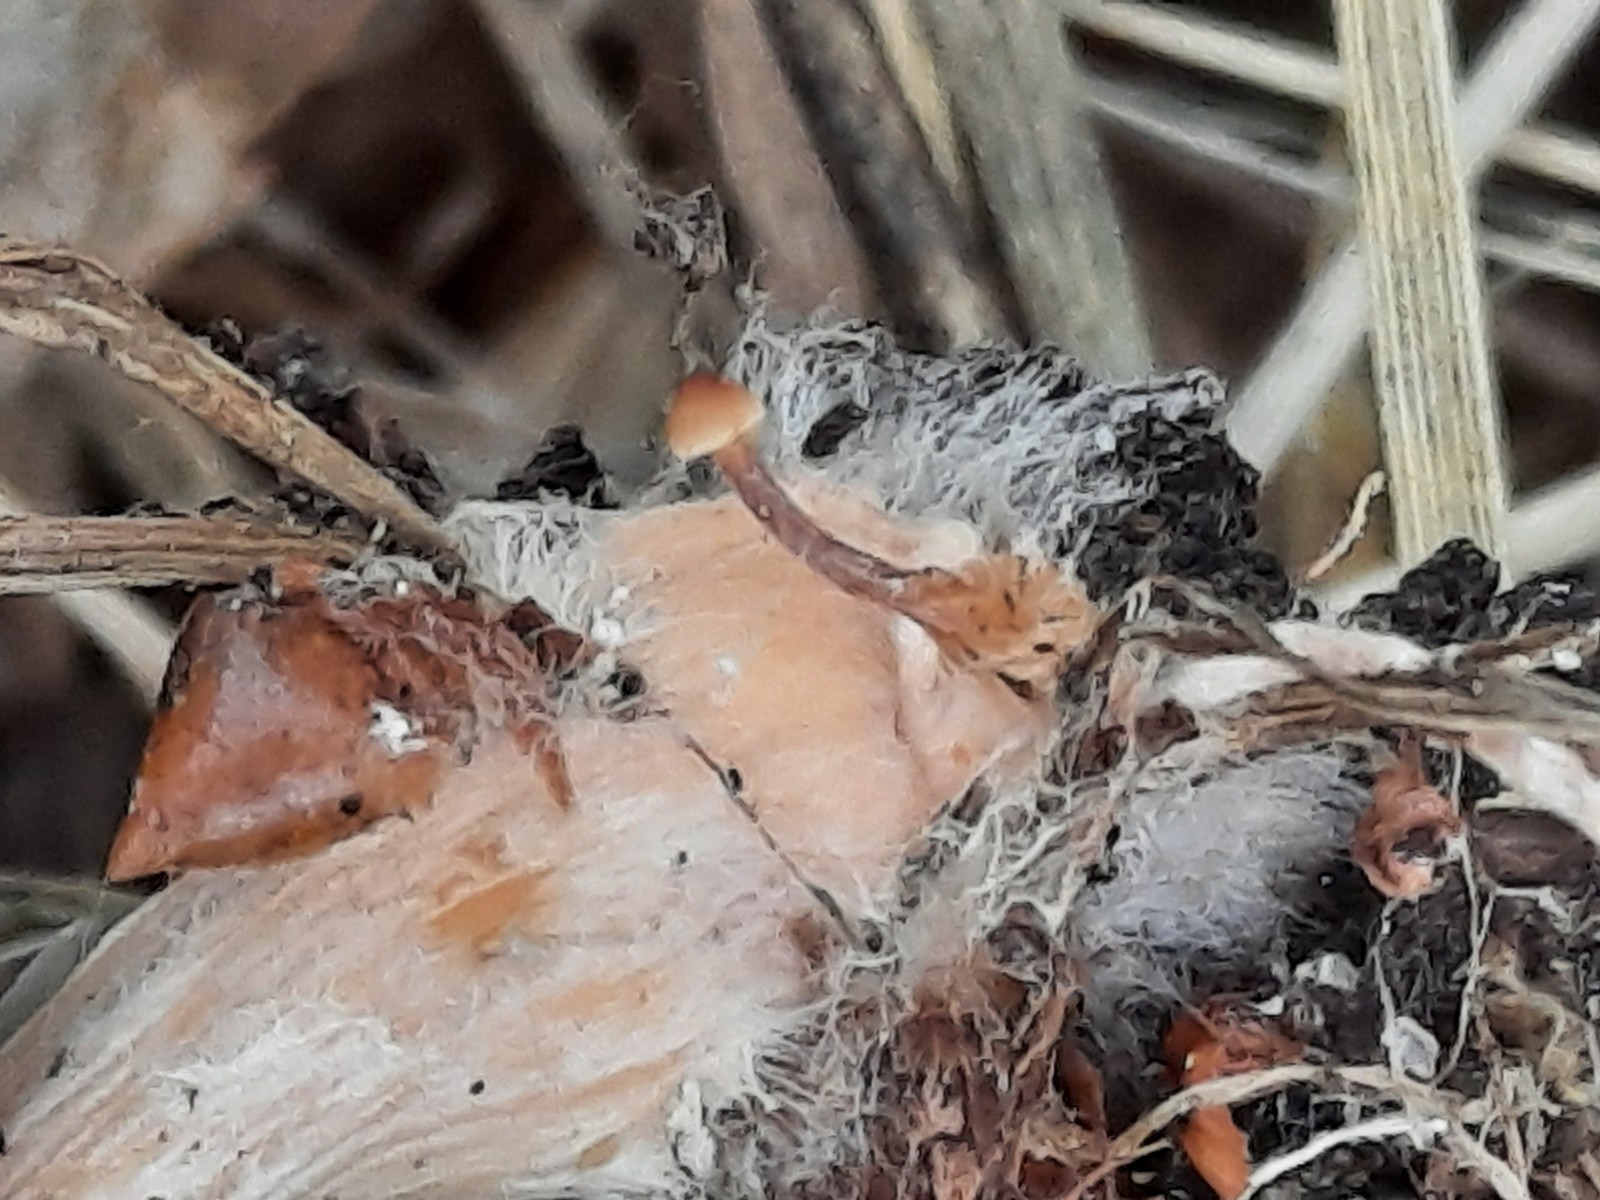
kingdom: Fungi
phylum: Basidiomycota
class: Agaricomycetes
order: Agaricales
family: Omphalotaceae
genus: Gymnopus
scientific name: Gymnopus dryophilus
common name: løv-fladhat
